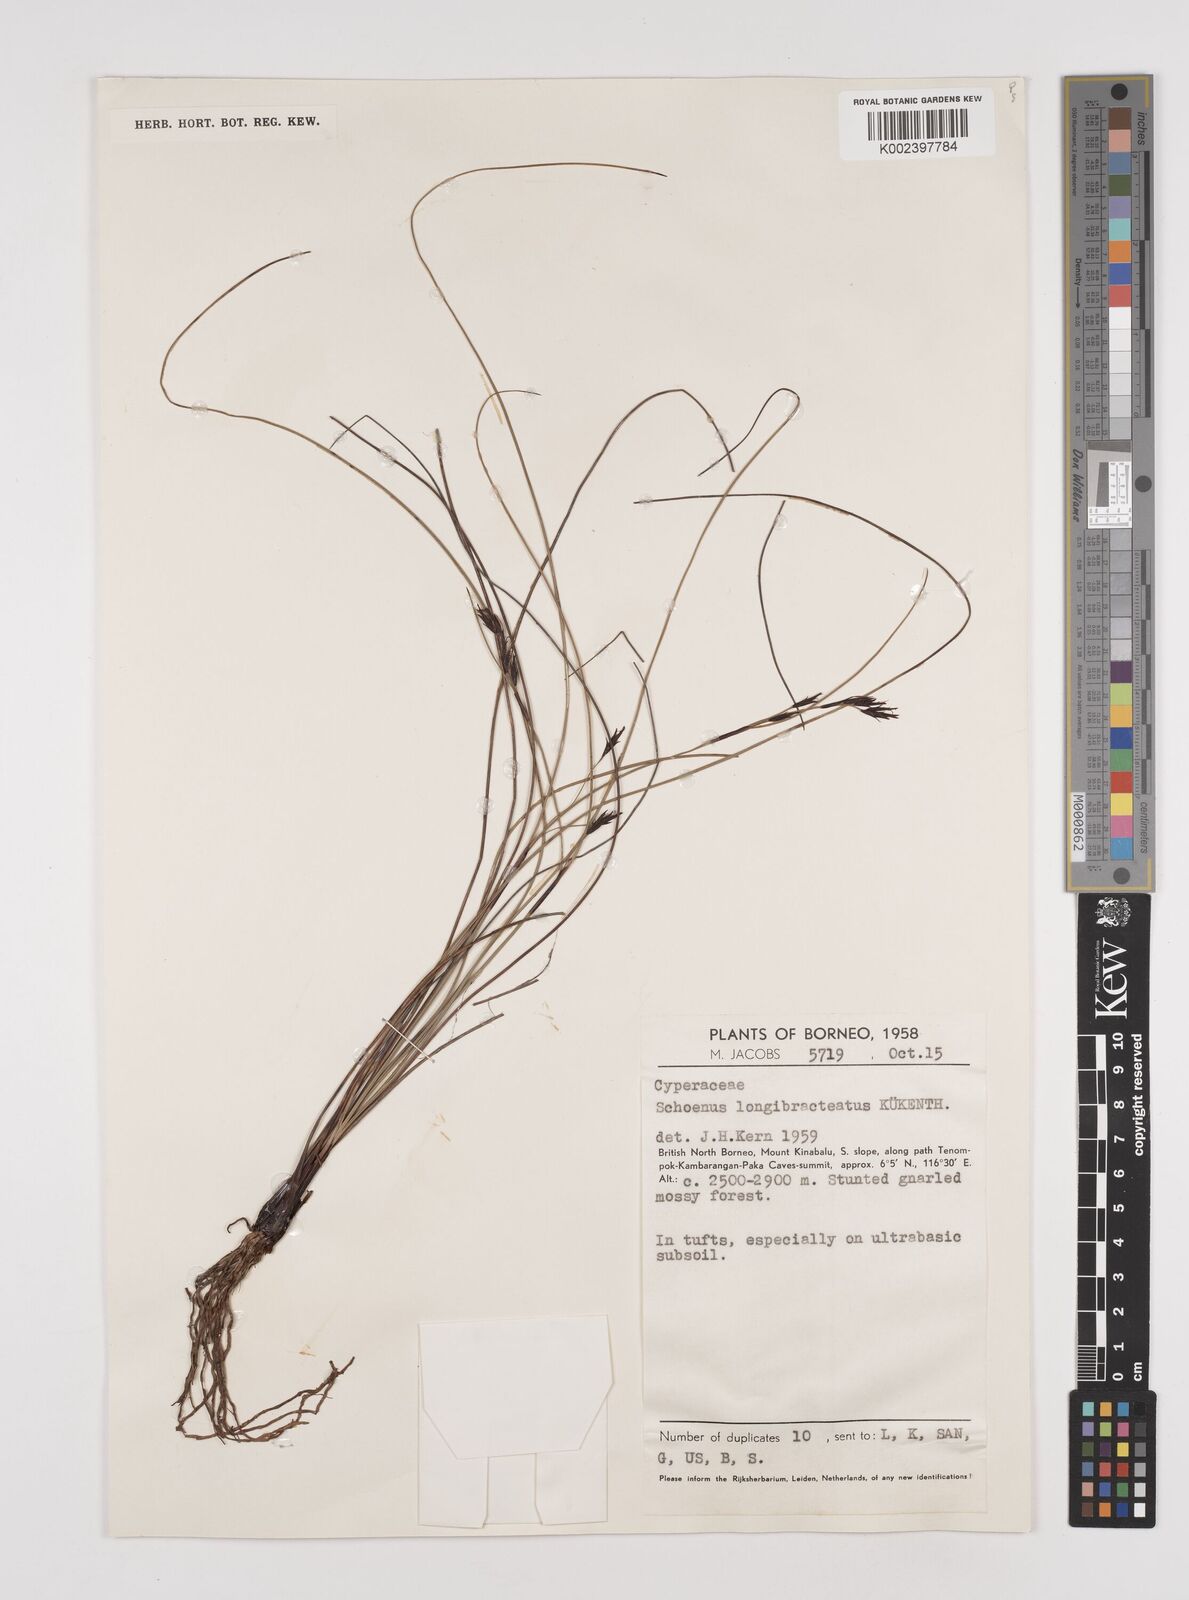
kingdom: Plantae
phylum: Tracheophyta
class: Liliopsida
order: Poales
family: Cyperaceae
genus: Schoenus
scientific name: Schoenus longibracteatus
